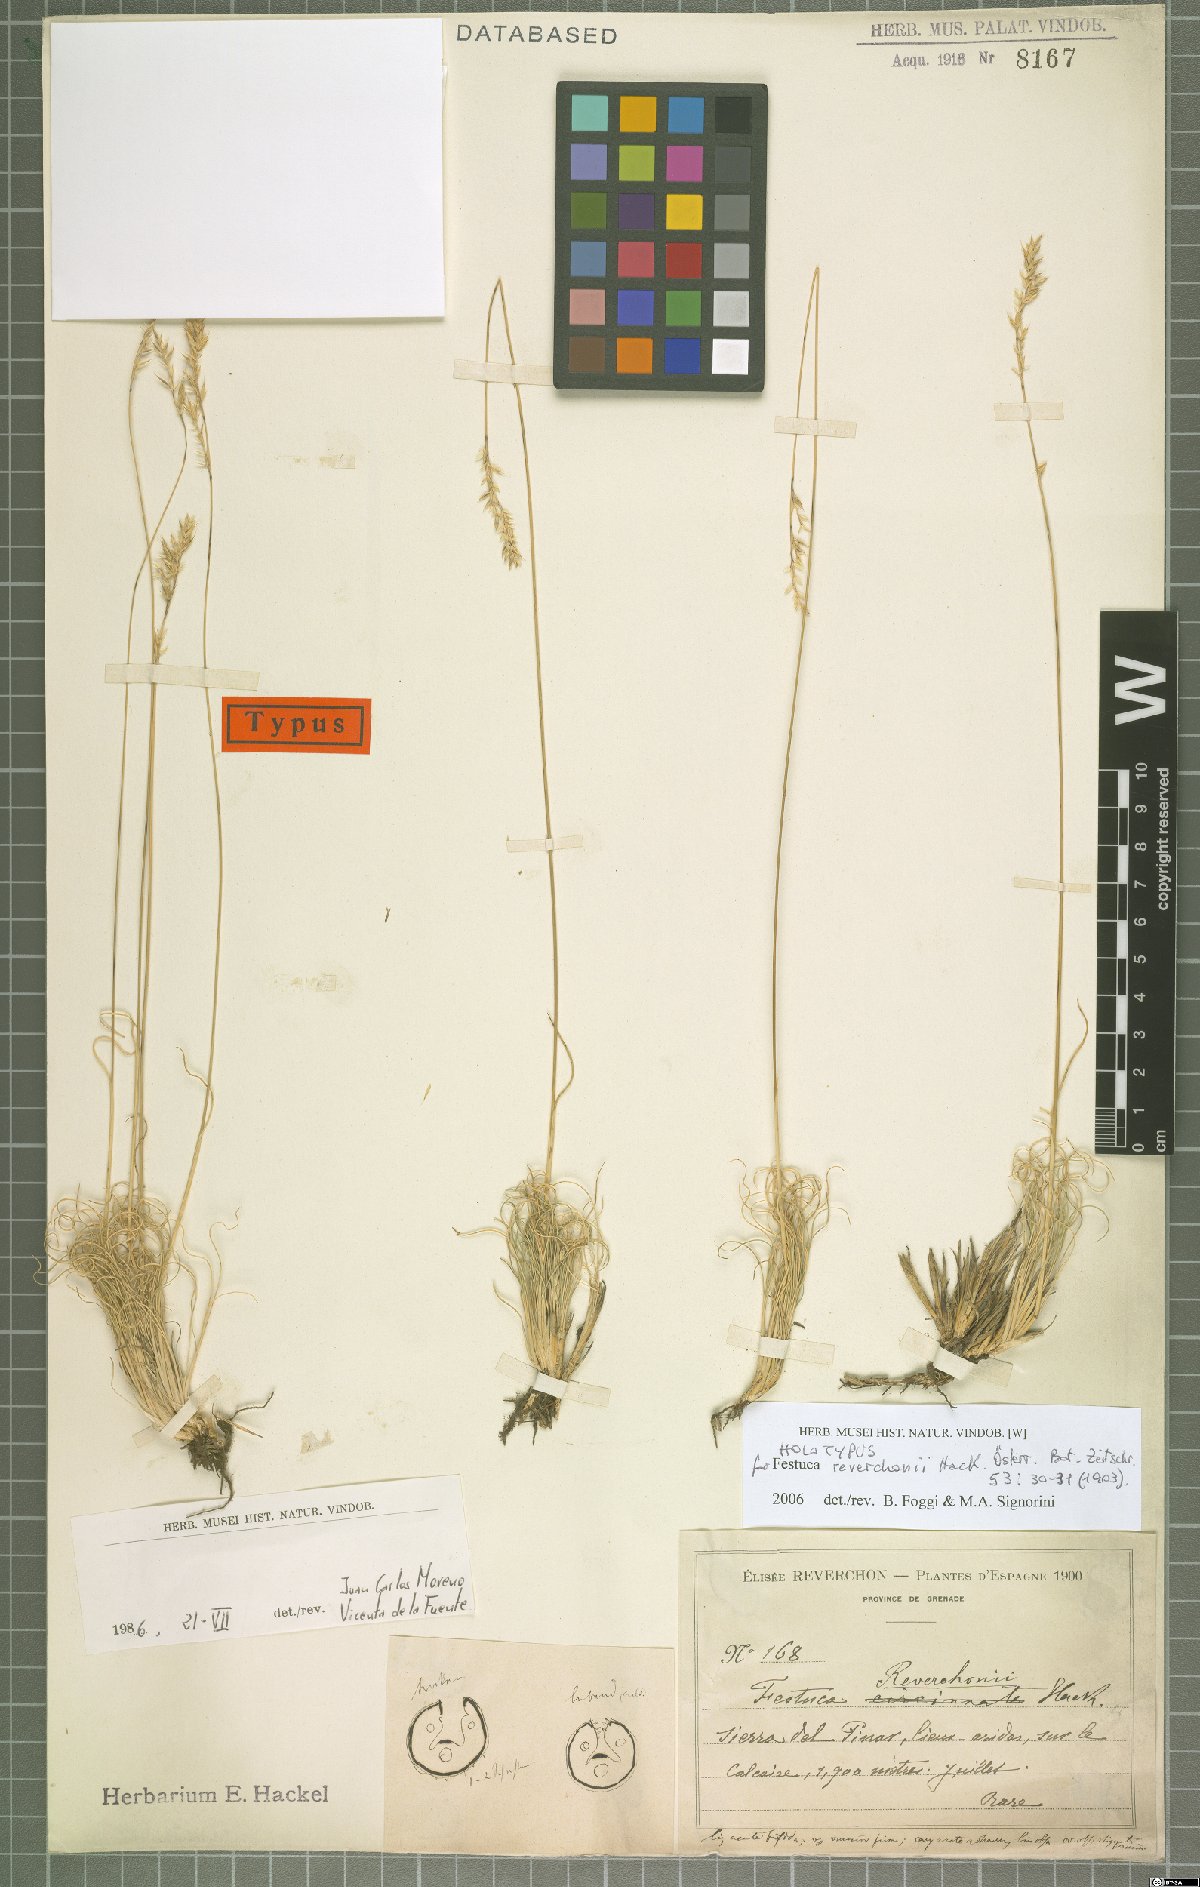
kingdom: Plantae
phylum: Tracheophyta
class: Liliopsida
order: Poales
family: Poaceae
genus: Festuca
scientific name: Festuca reverchonii
